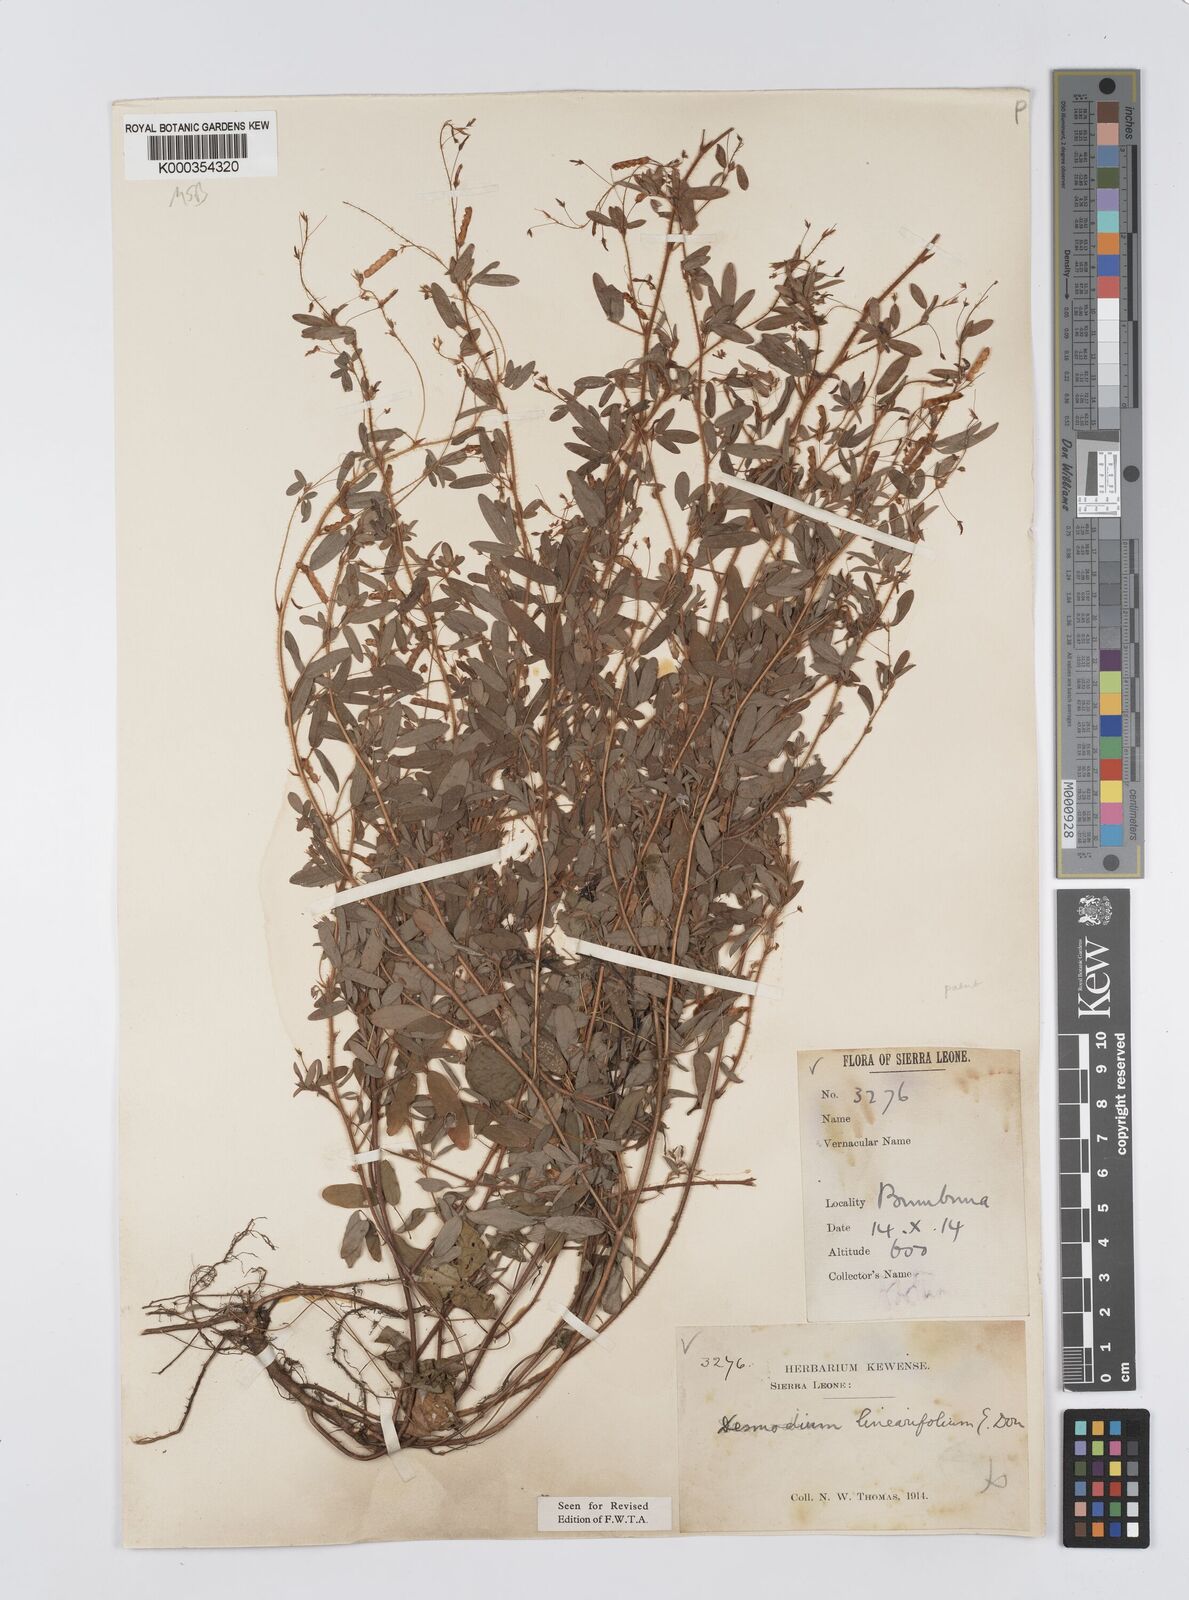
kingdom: Plantae
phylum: Tracheophyta
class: Magnoliopsida
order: Fabales
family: Fabaceae
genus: Desmodium
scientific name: Desmodium linearifolium
